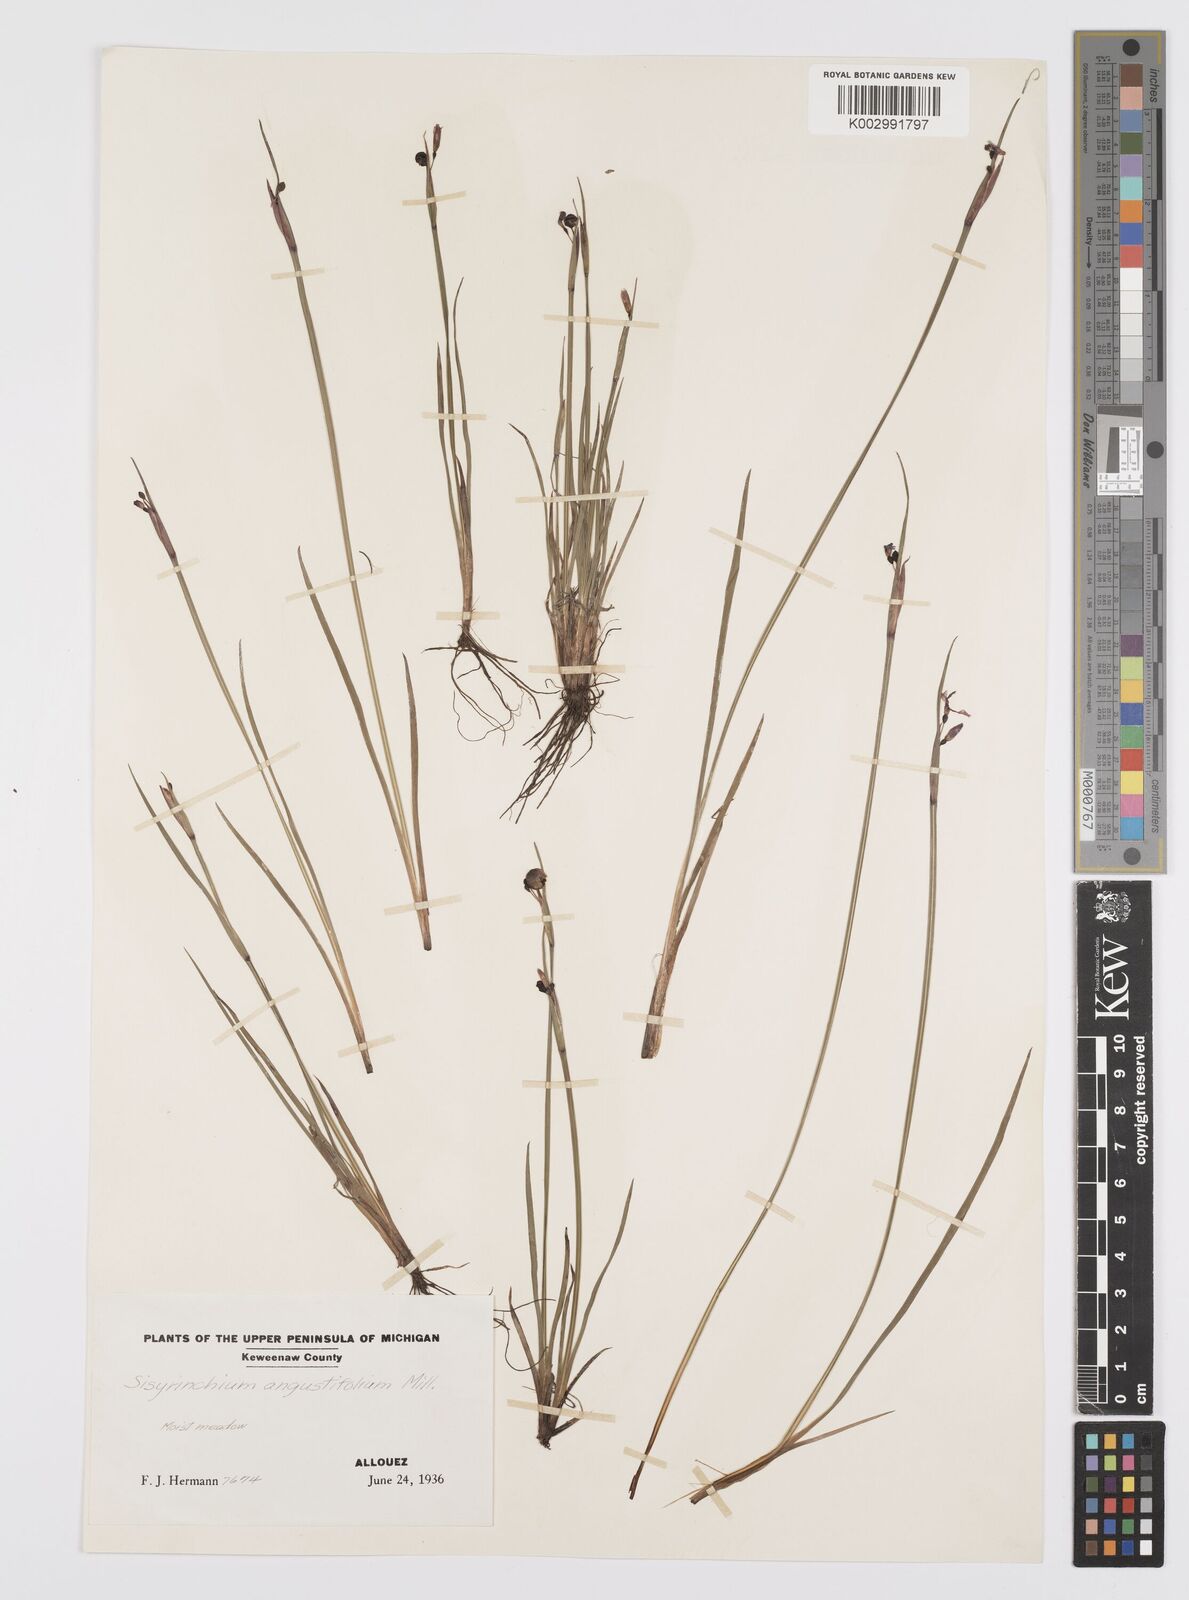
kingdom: Plantae
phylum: Tracheophyta
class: Liliopsida
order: Asparagales
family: Iridaceae
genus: Sisyrinchium
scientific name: Sisyrinchium bermudiana
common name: Blue-eyed-grass
